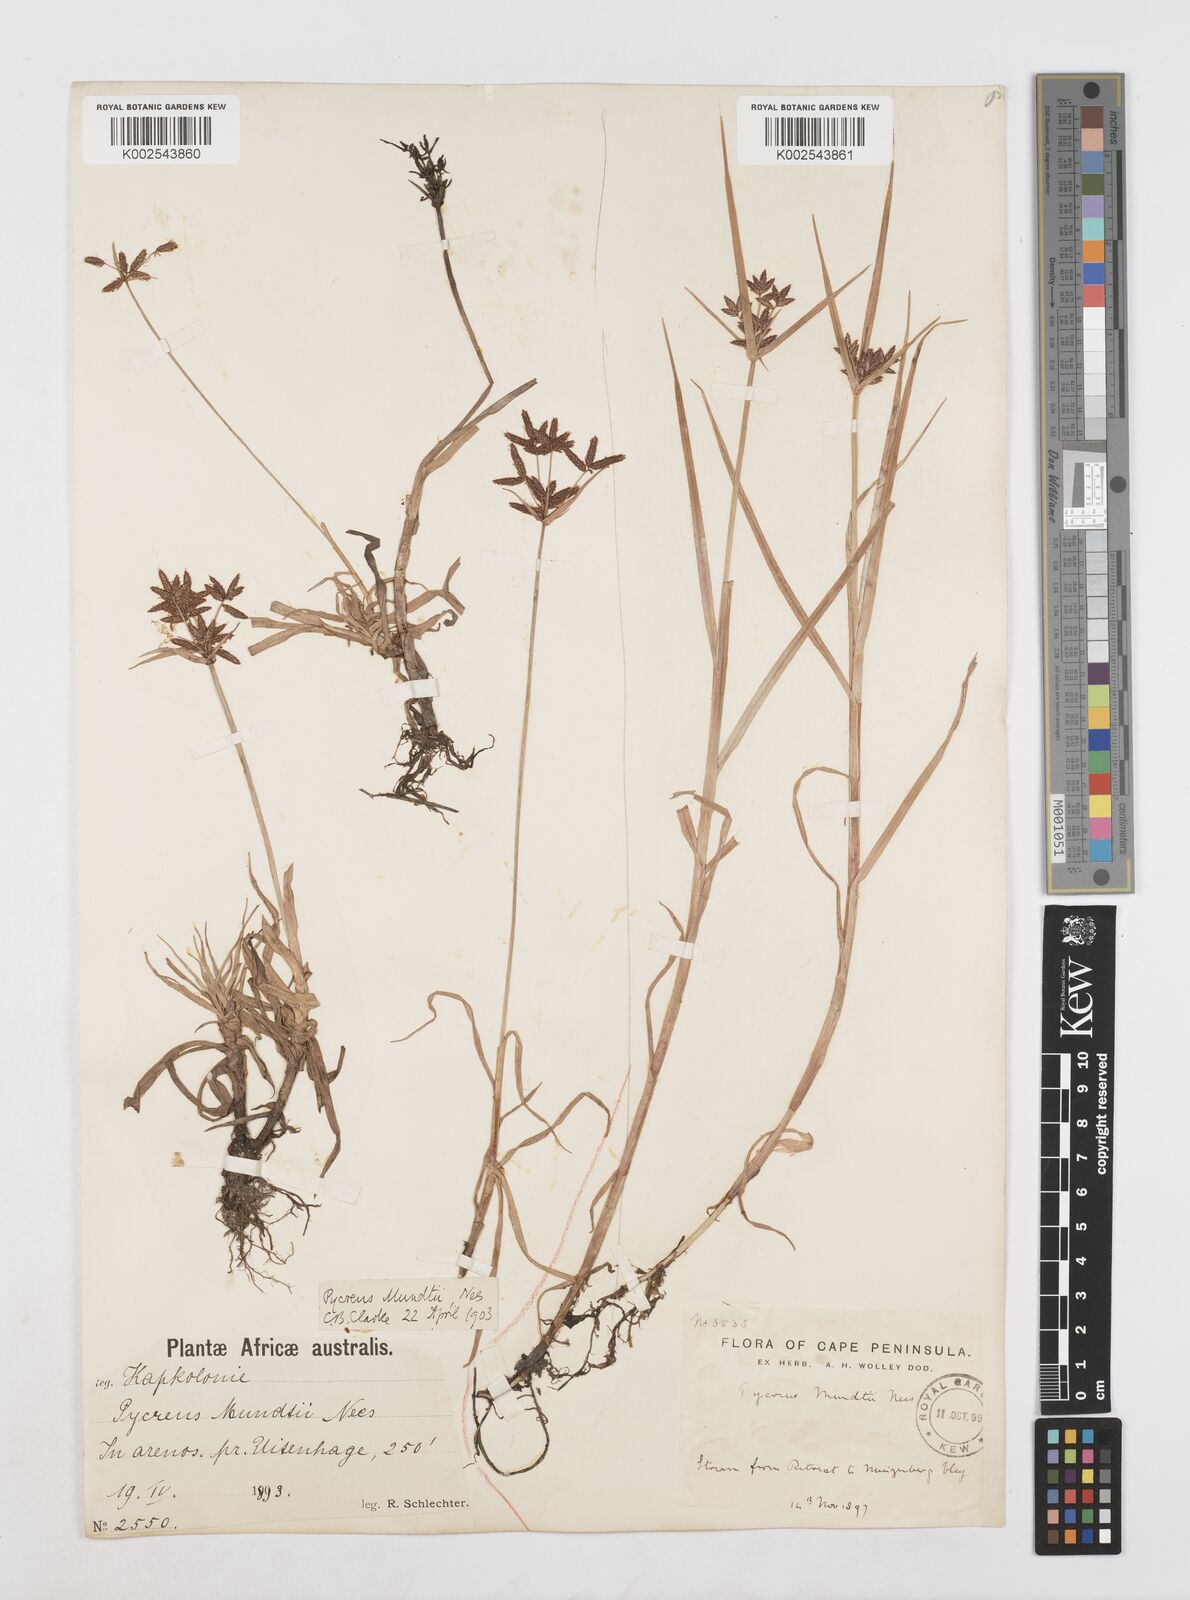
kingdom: Plantae
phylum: Tracheophyta
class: Liliopsida
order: Poales
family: Cyperaceae
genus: Cyperus
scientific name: Cyperus mundii
